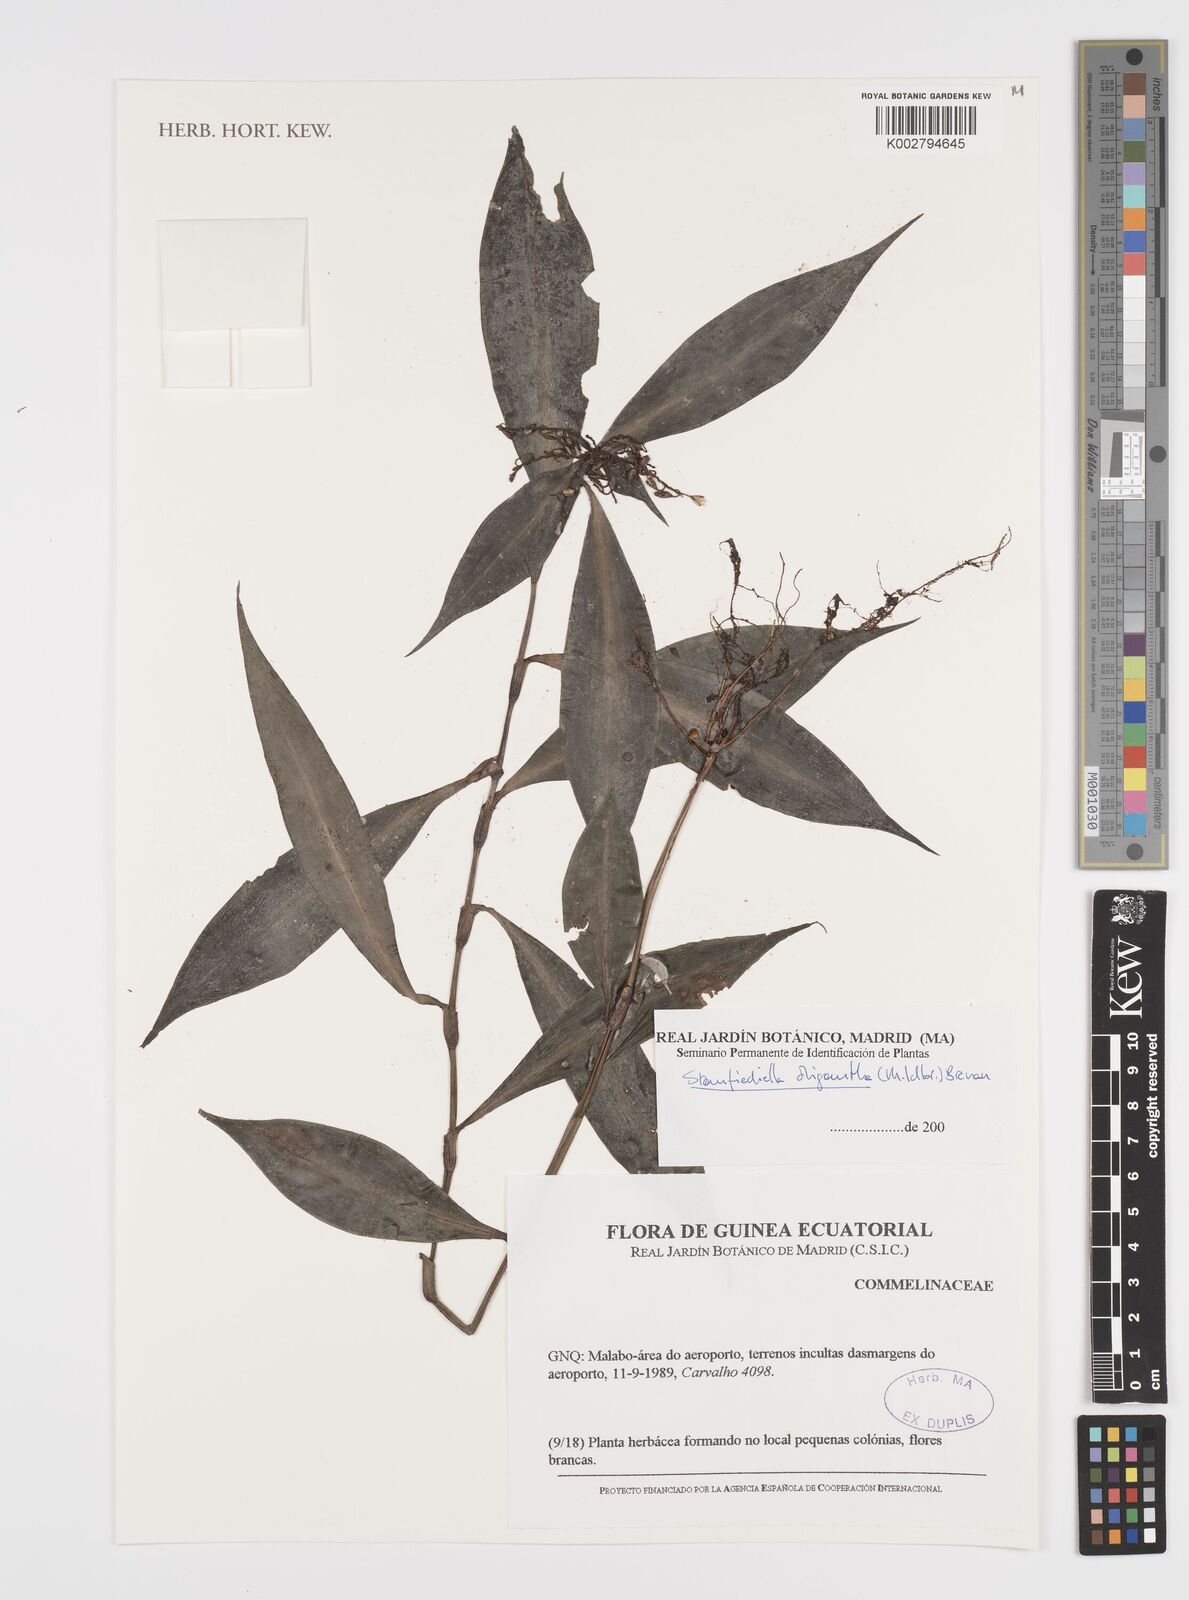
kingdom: Plantae
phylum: Tracheophyta
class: Liliopsida
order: Commelinales
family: Commelinaceae
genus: Stanfieldiella
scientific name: Stanfieldiella oligantha
